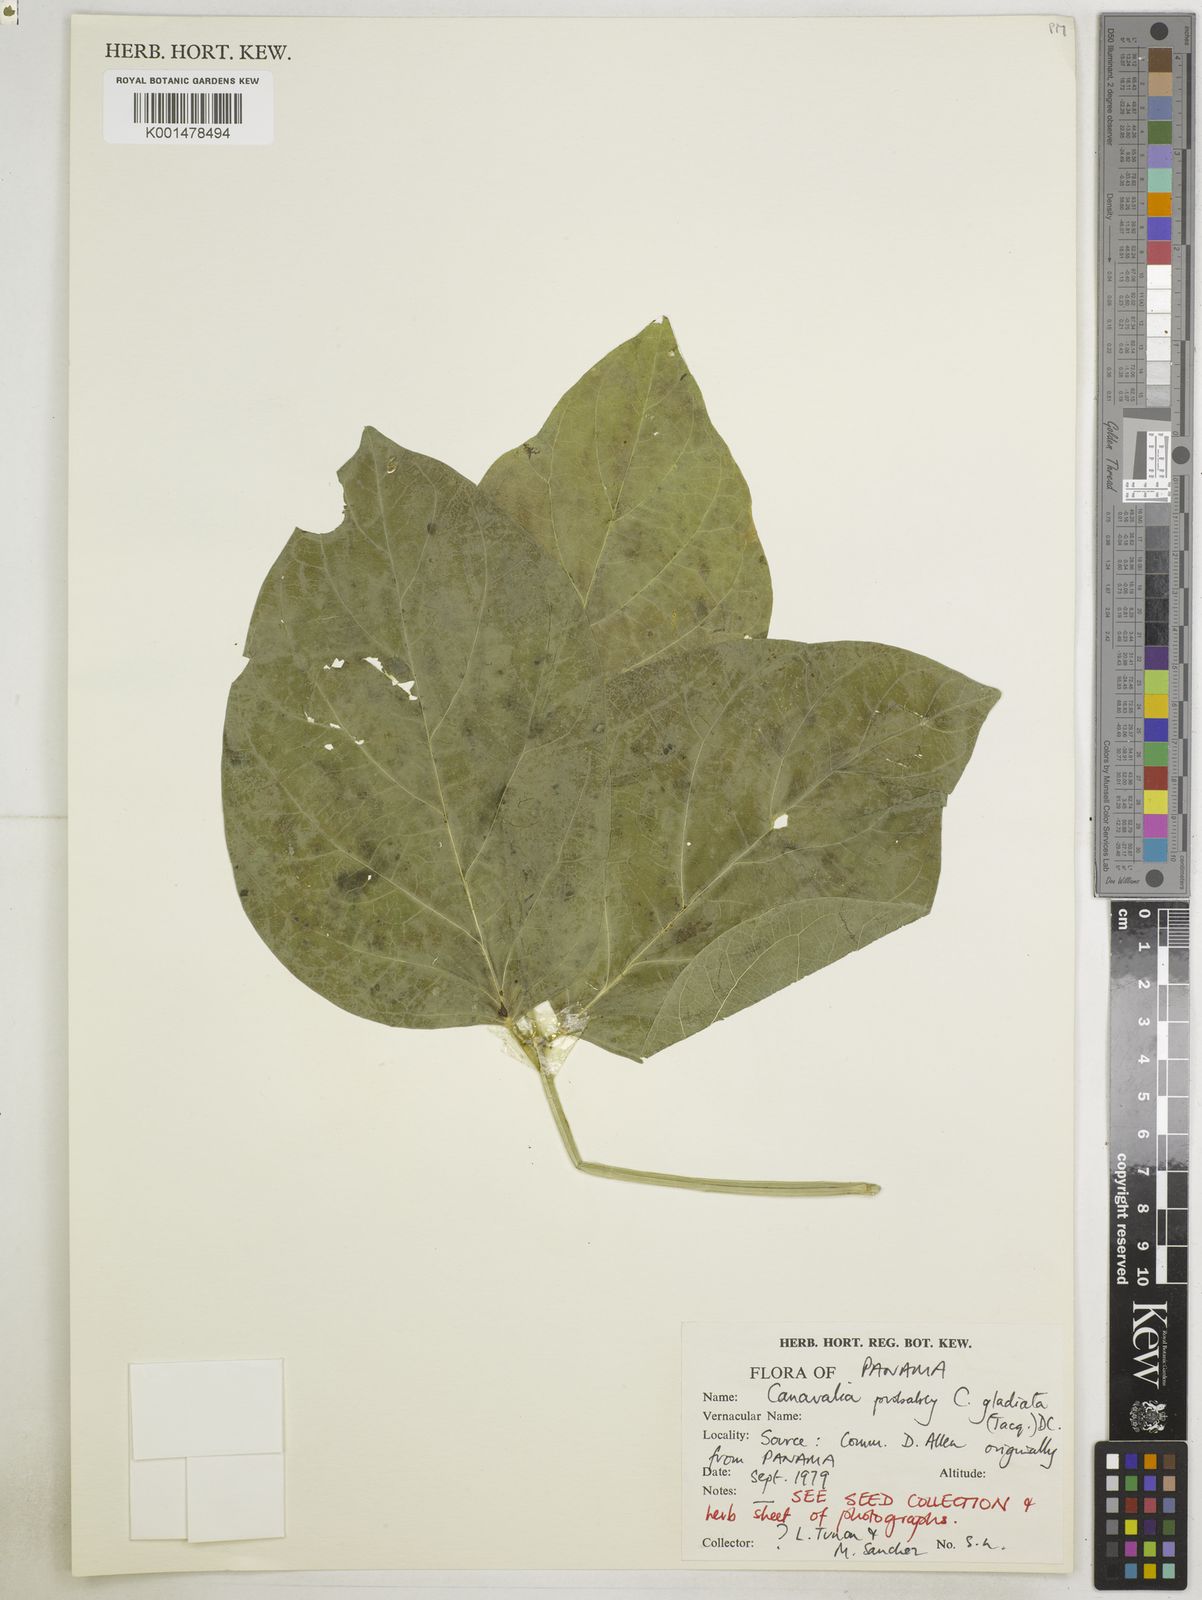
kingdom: Plantae
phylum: Tracheophyta
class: Magnoliopsida
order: Fabales
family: Fabaceae
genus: Canavalia
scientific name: Canavalia gladiata
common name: Scimitar-bean
